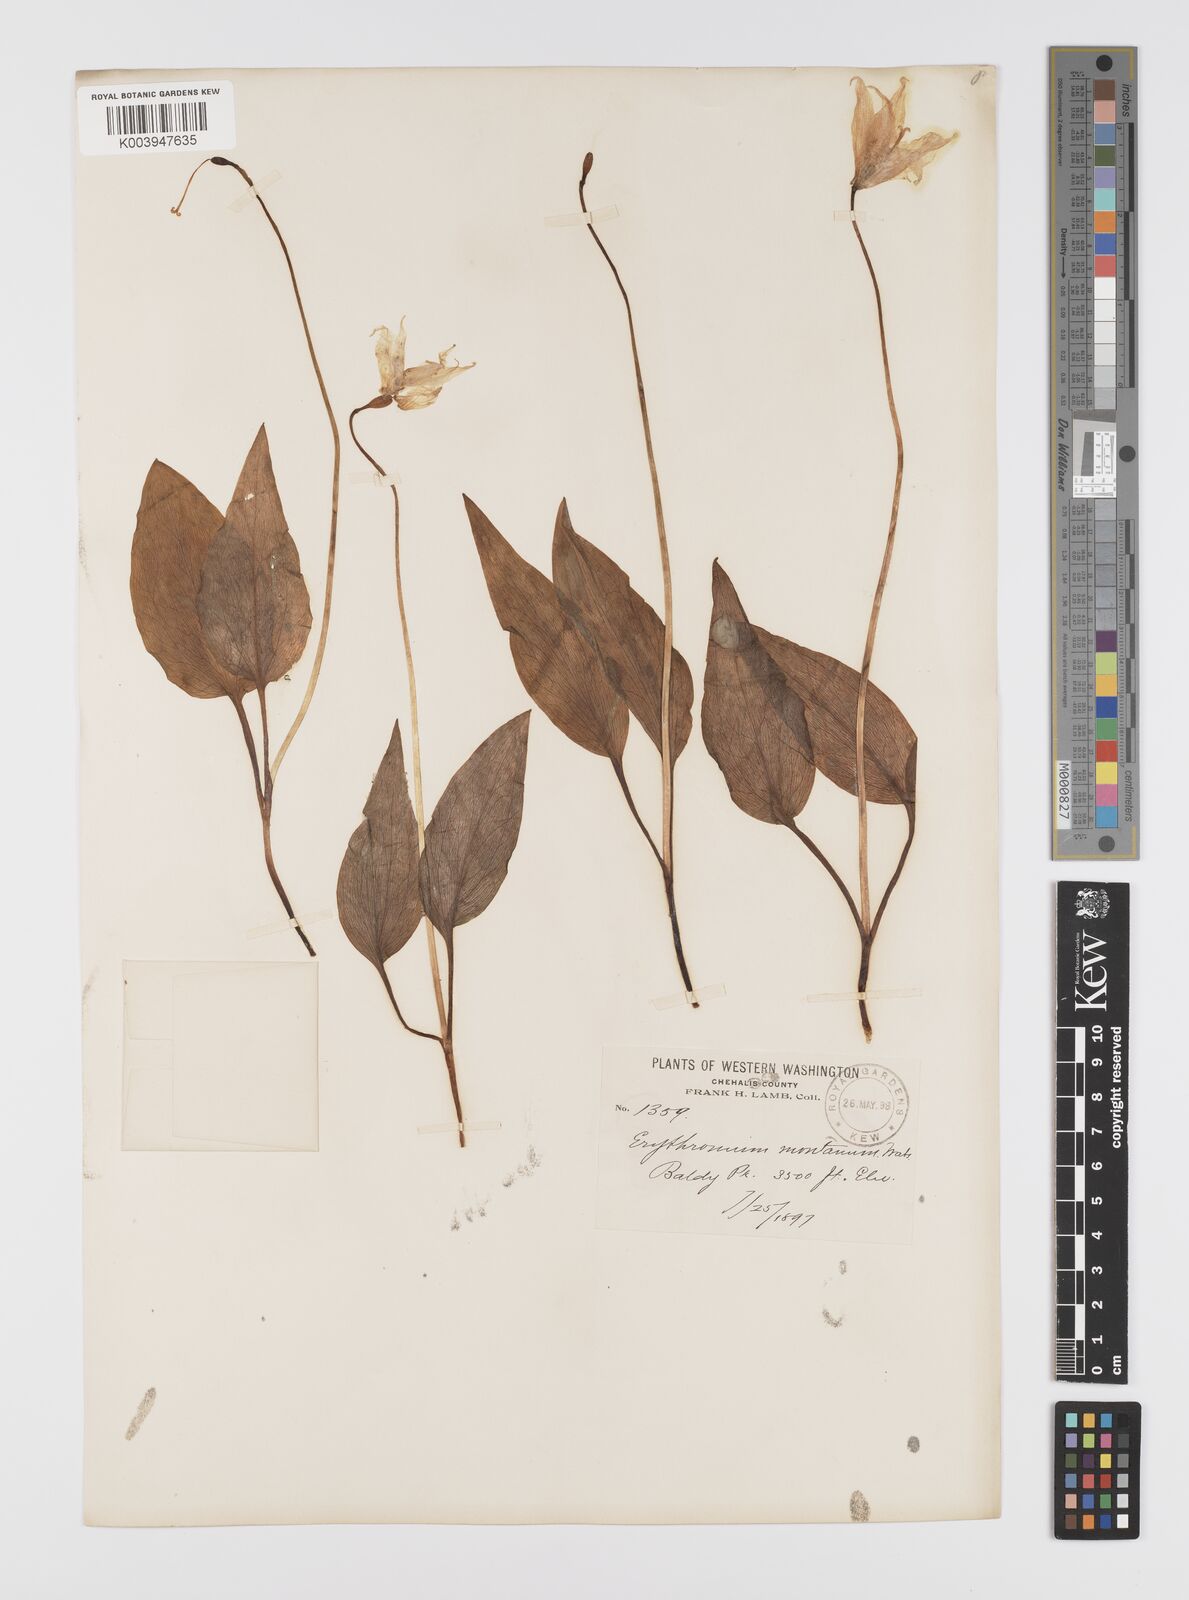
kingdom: Plantae
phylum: Tracheophyta
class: Liliopsida
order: Liliales
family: Liliaceae
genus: Erythronium
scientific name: Erythronium montanum
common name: Avalanche lily
